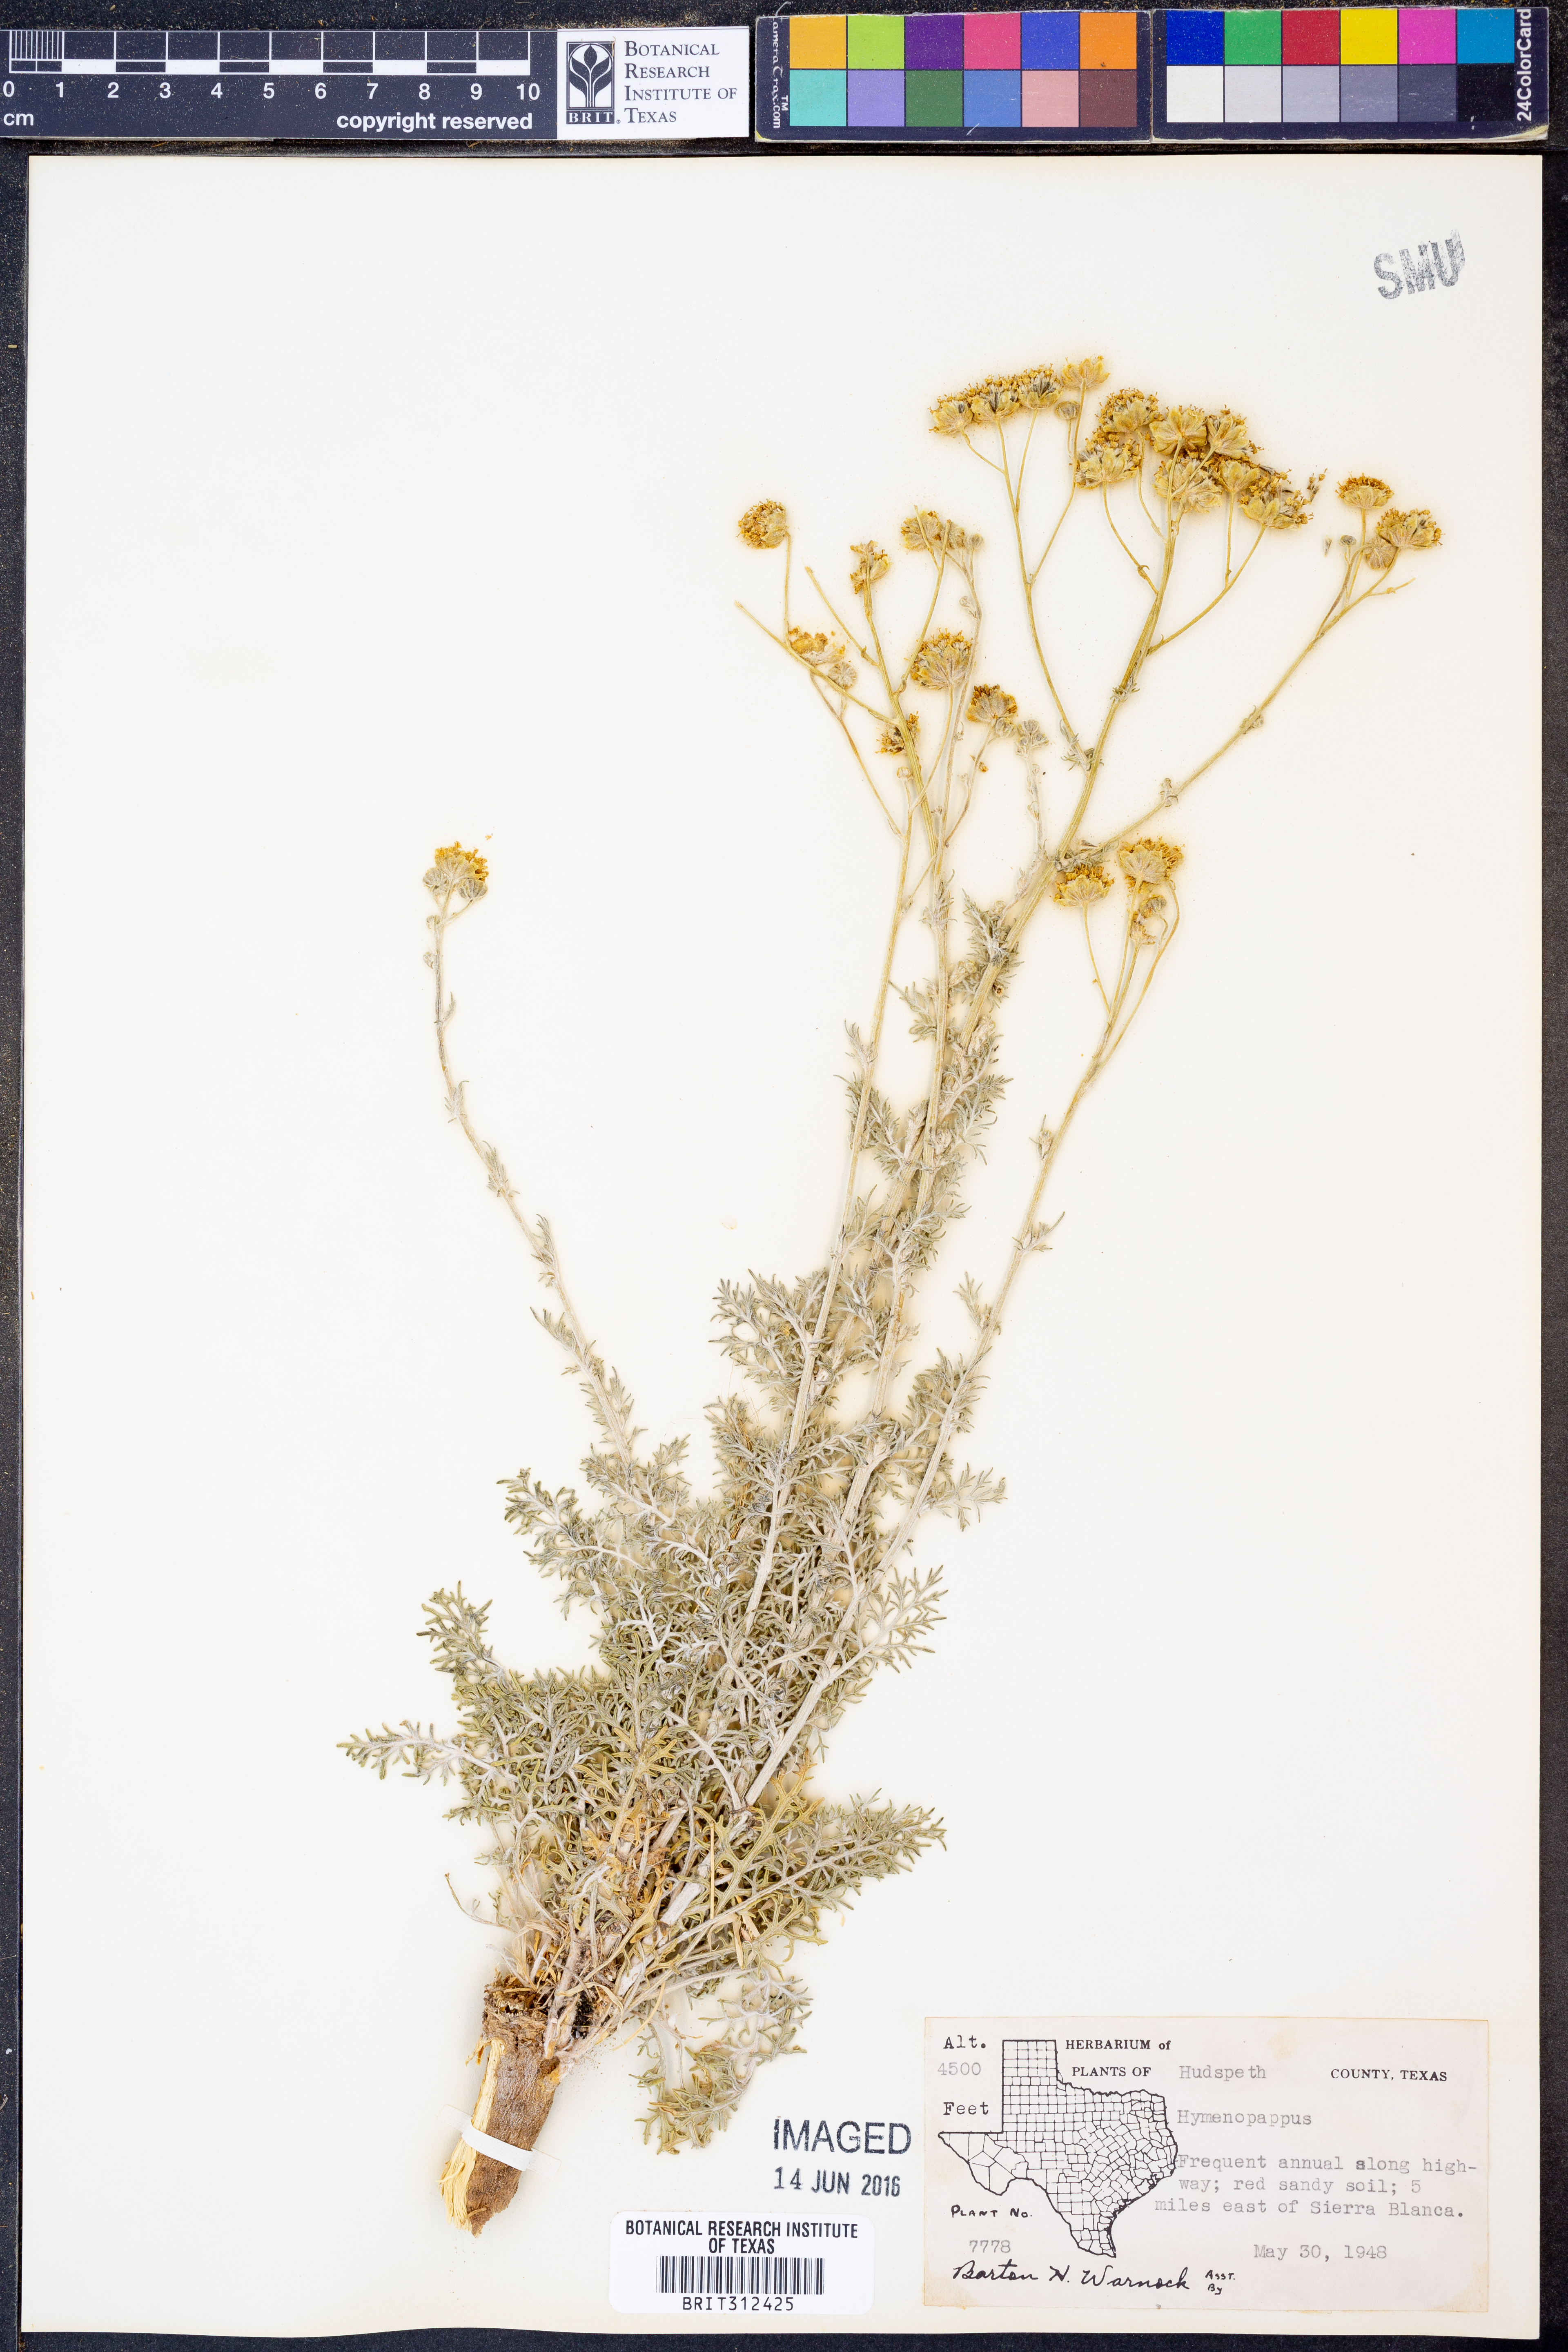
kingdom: Plantae
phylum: Tracheophyta
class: Magnoliopsida
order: Asterales
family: Asteraceae
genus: Hymenopappus
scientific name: Hymenopappus
